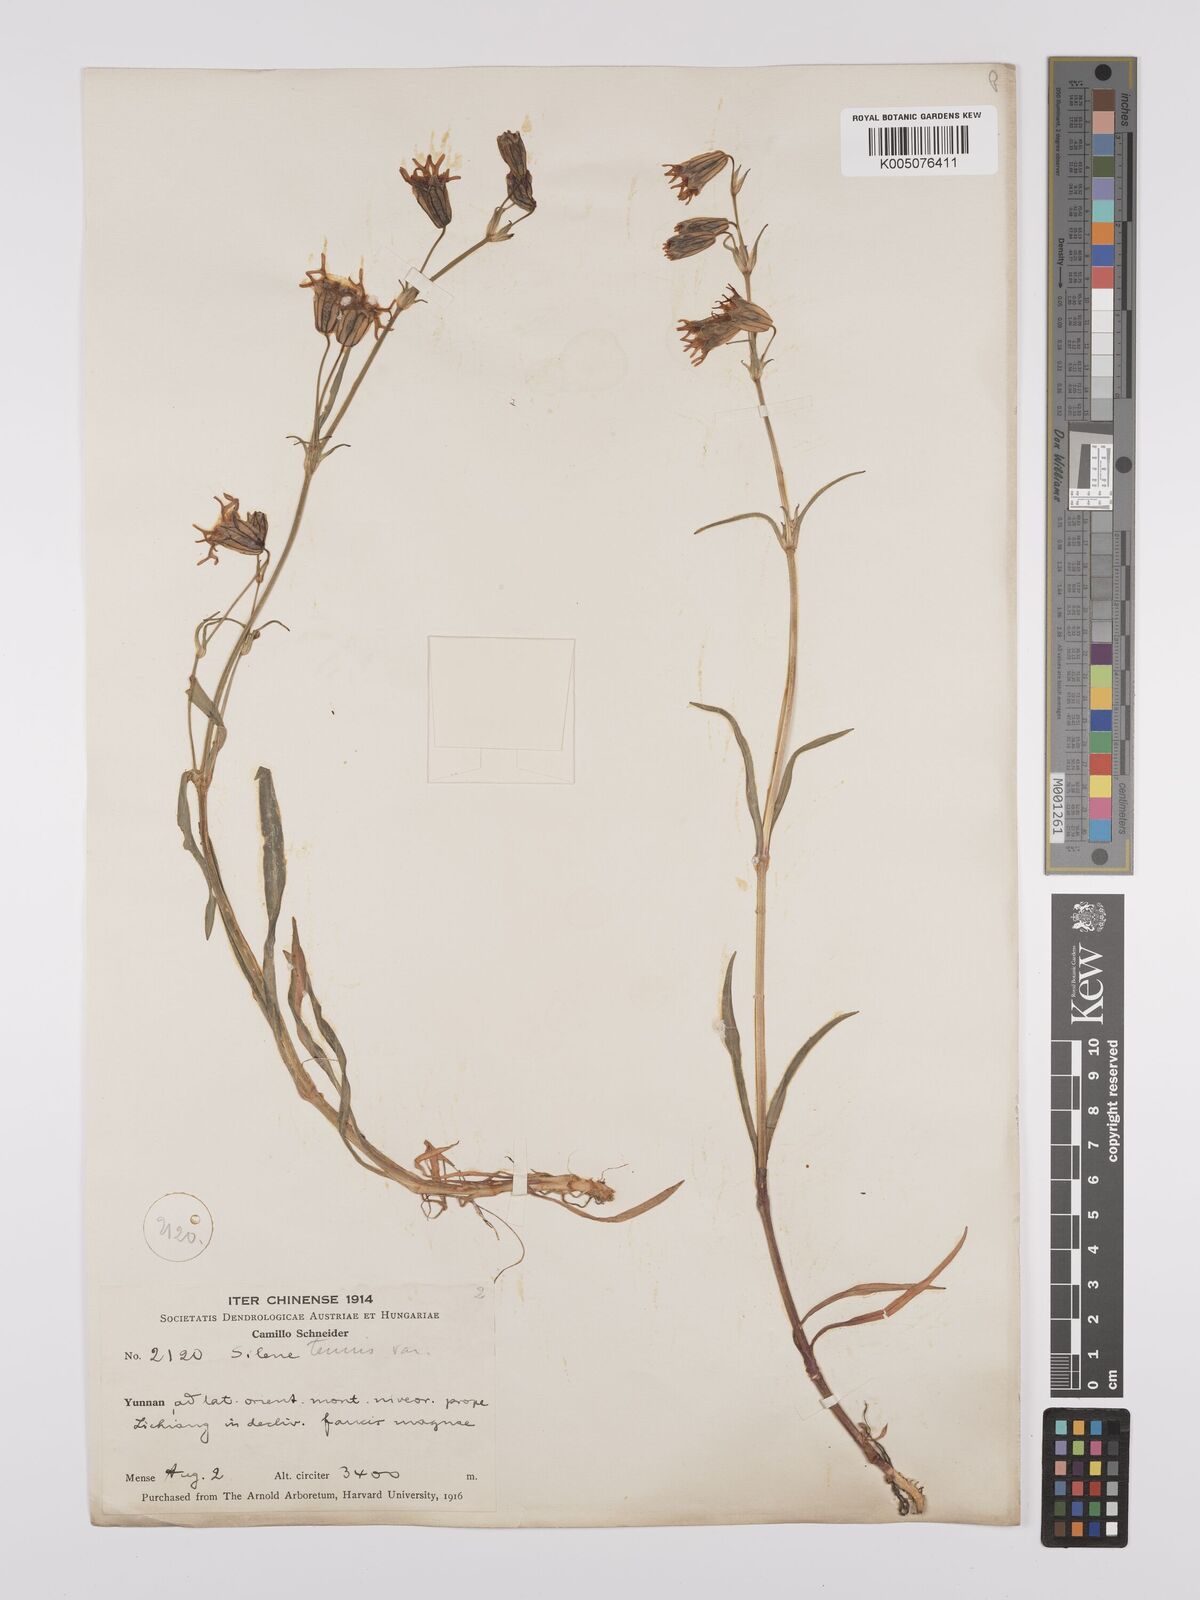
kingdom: Plantae
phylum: Tracheophyta
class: Magnoliopsida
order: Caryophyllales
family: Caryophyllaceae
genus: Silene
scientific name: Silene
